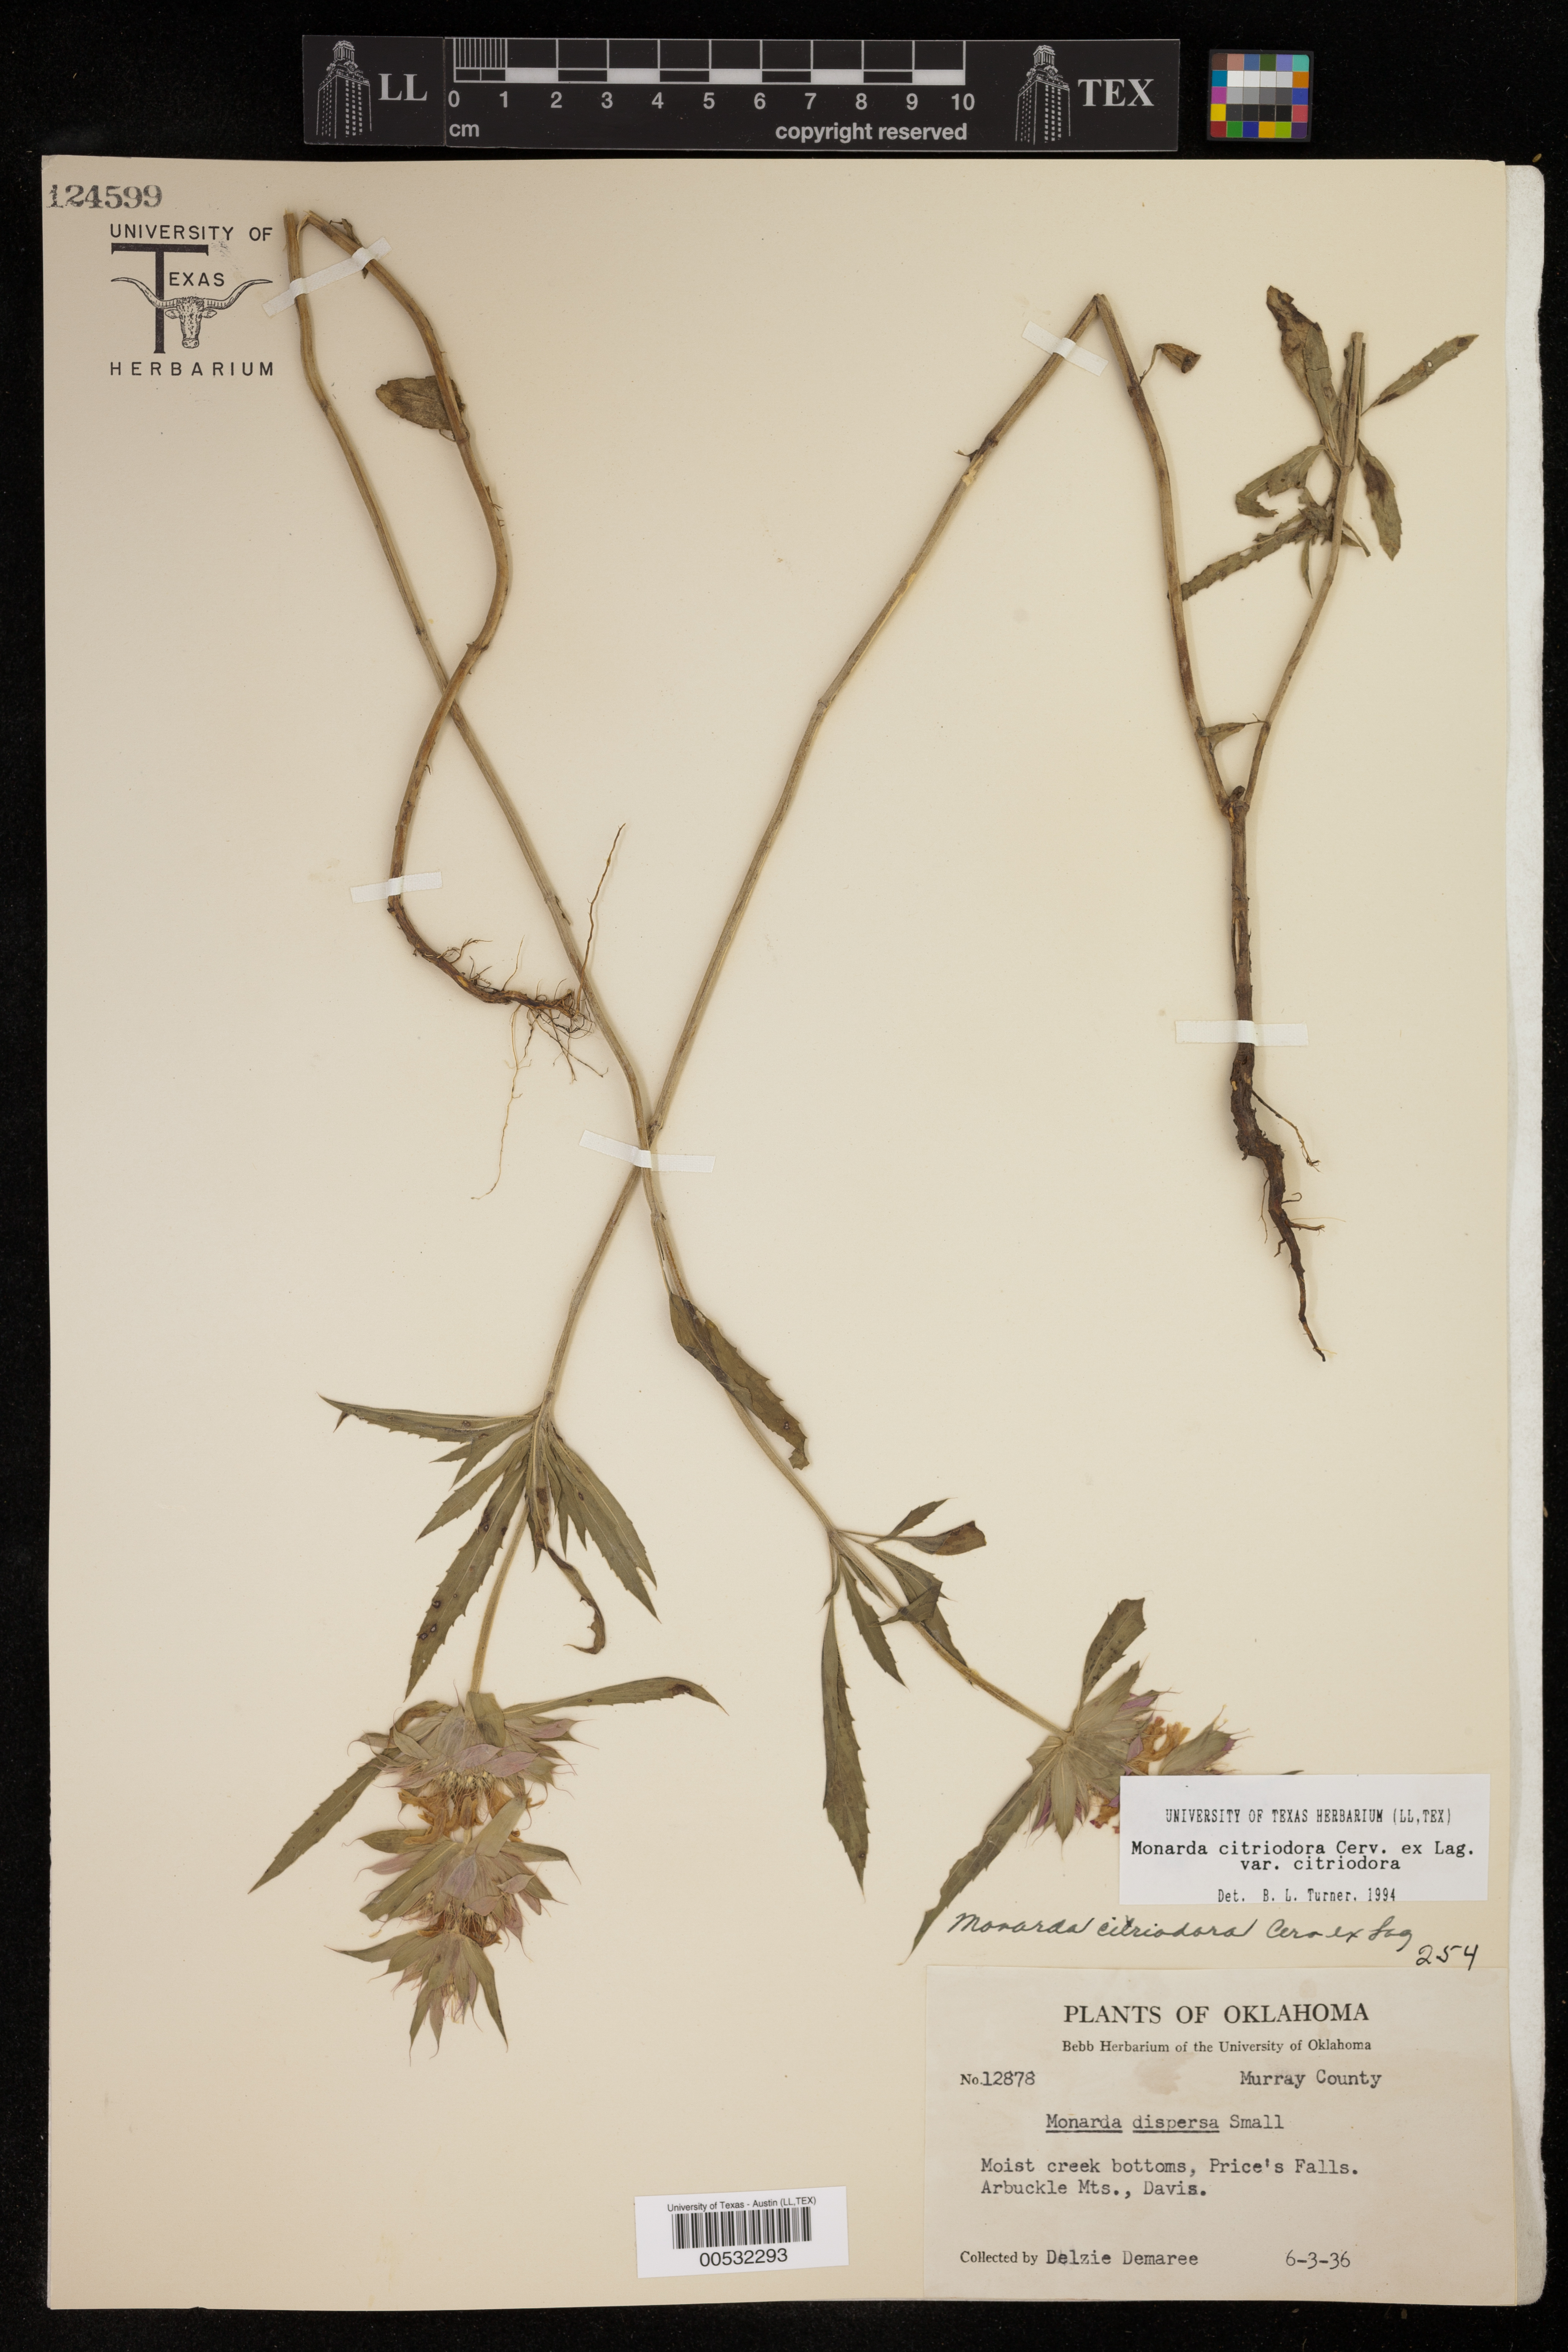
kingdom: Plantae
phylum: Tracheophyta
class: Magnoliopsida
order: Lamiales
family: Lamiaceae
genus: Monarda
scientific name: Monarda citriodora
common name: Lemon beebalm
